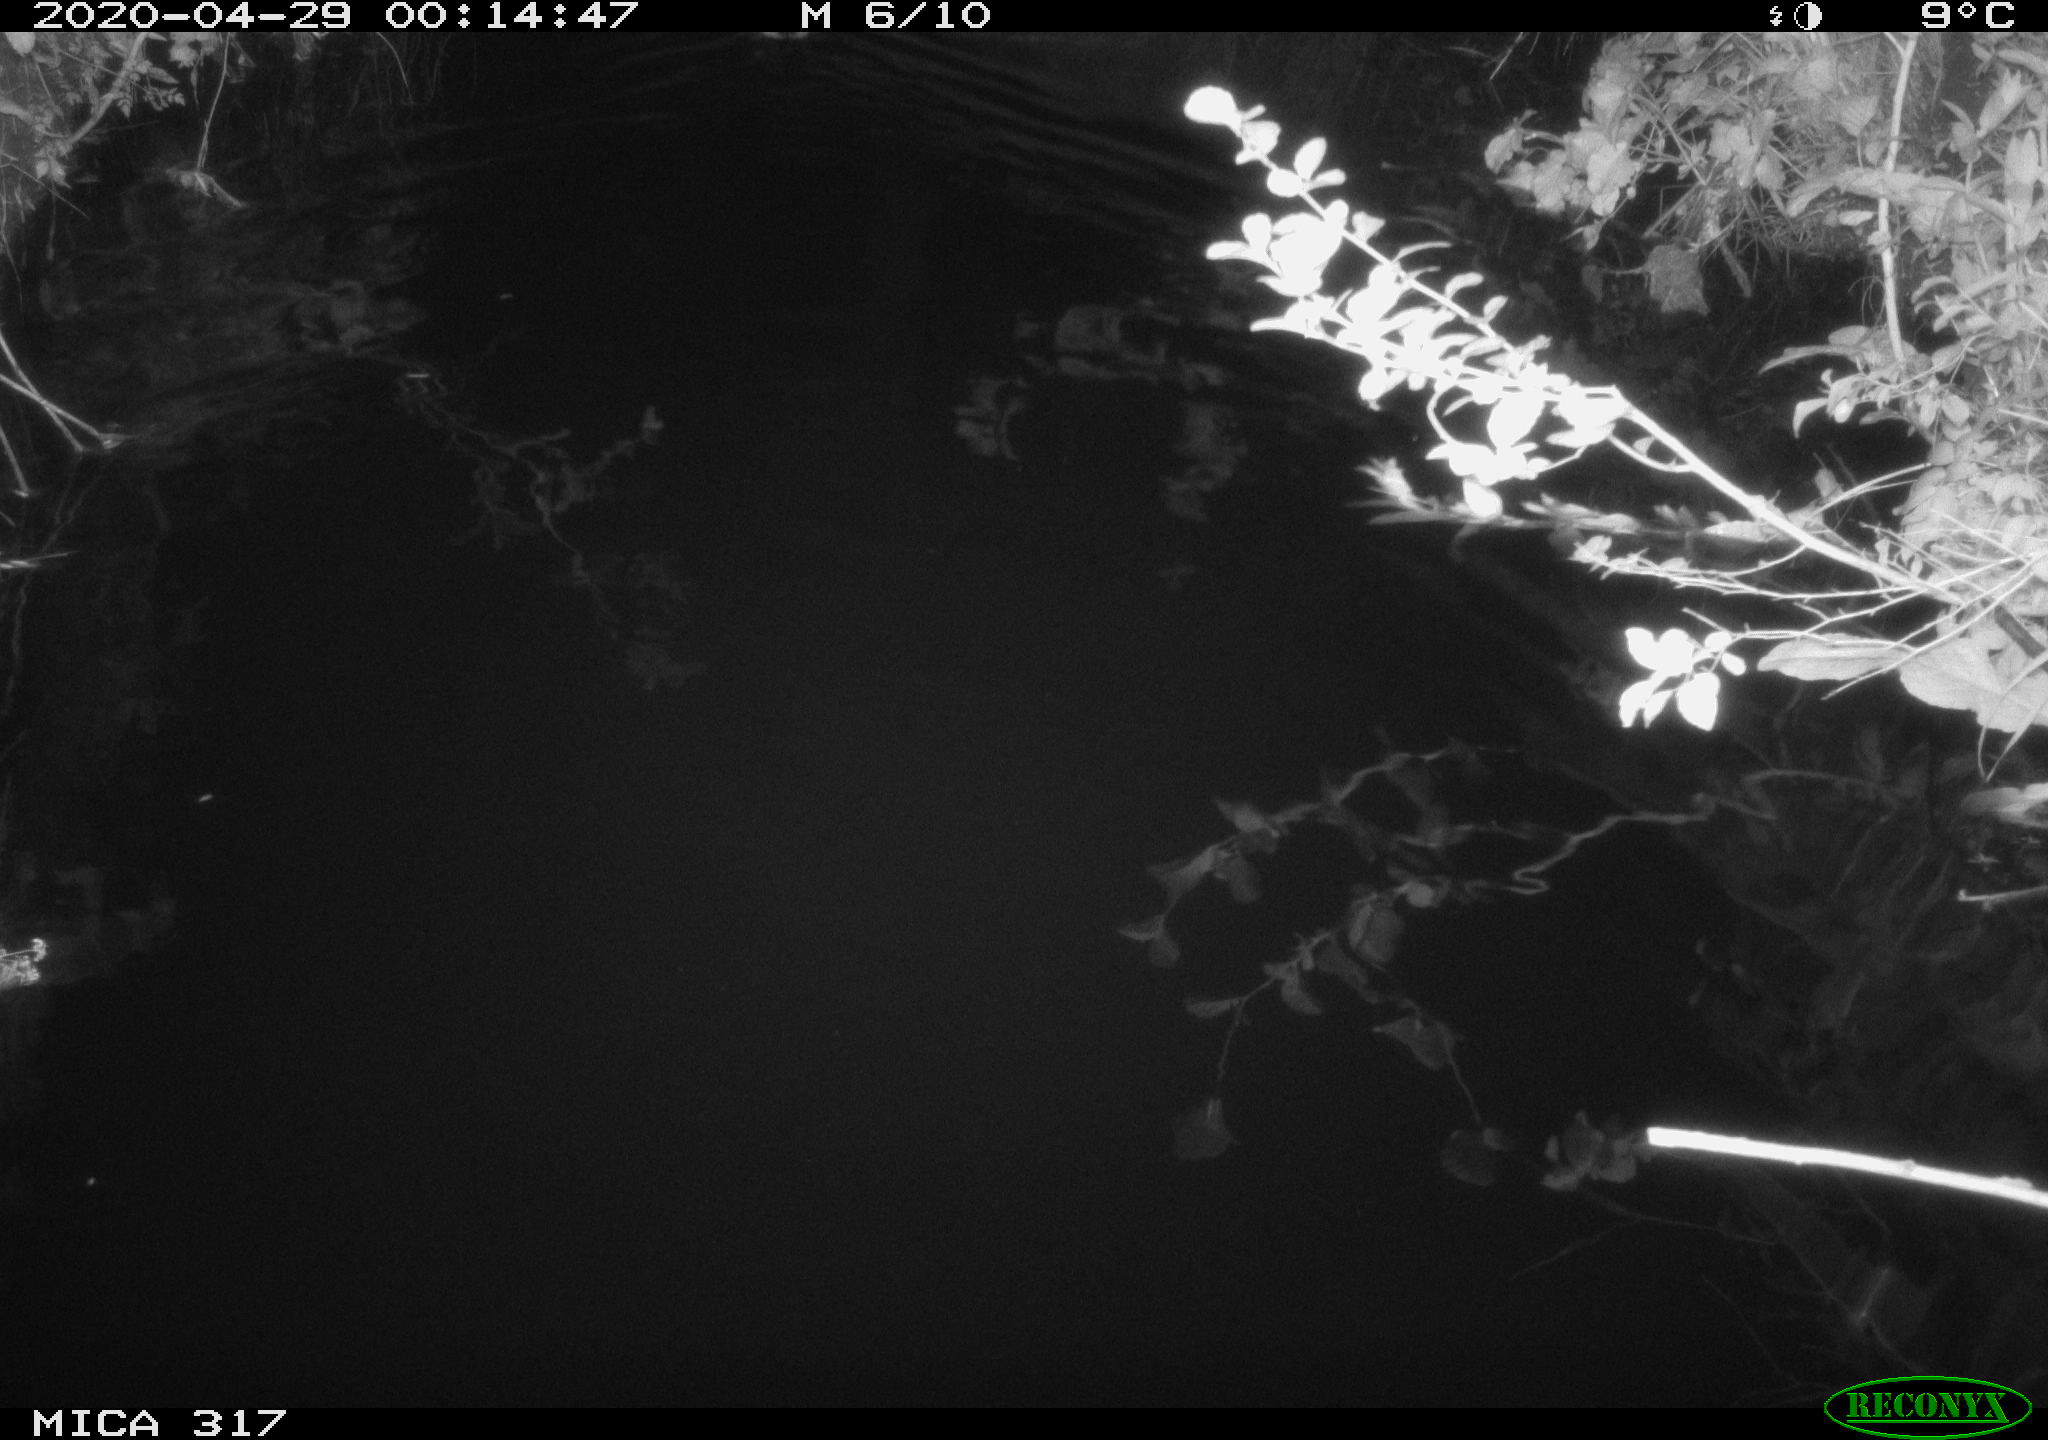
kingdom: Animalia
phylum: Chordata
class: Aves
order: Anseriformes
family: Anatidae
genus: Anas
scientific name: Anas platyrhynchos
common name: Mallard
